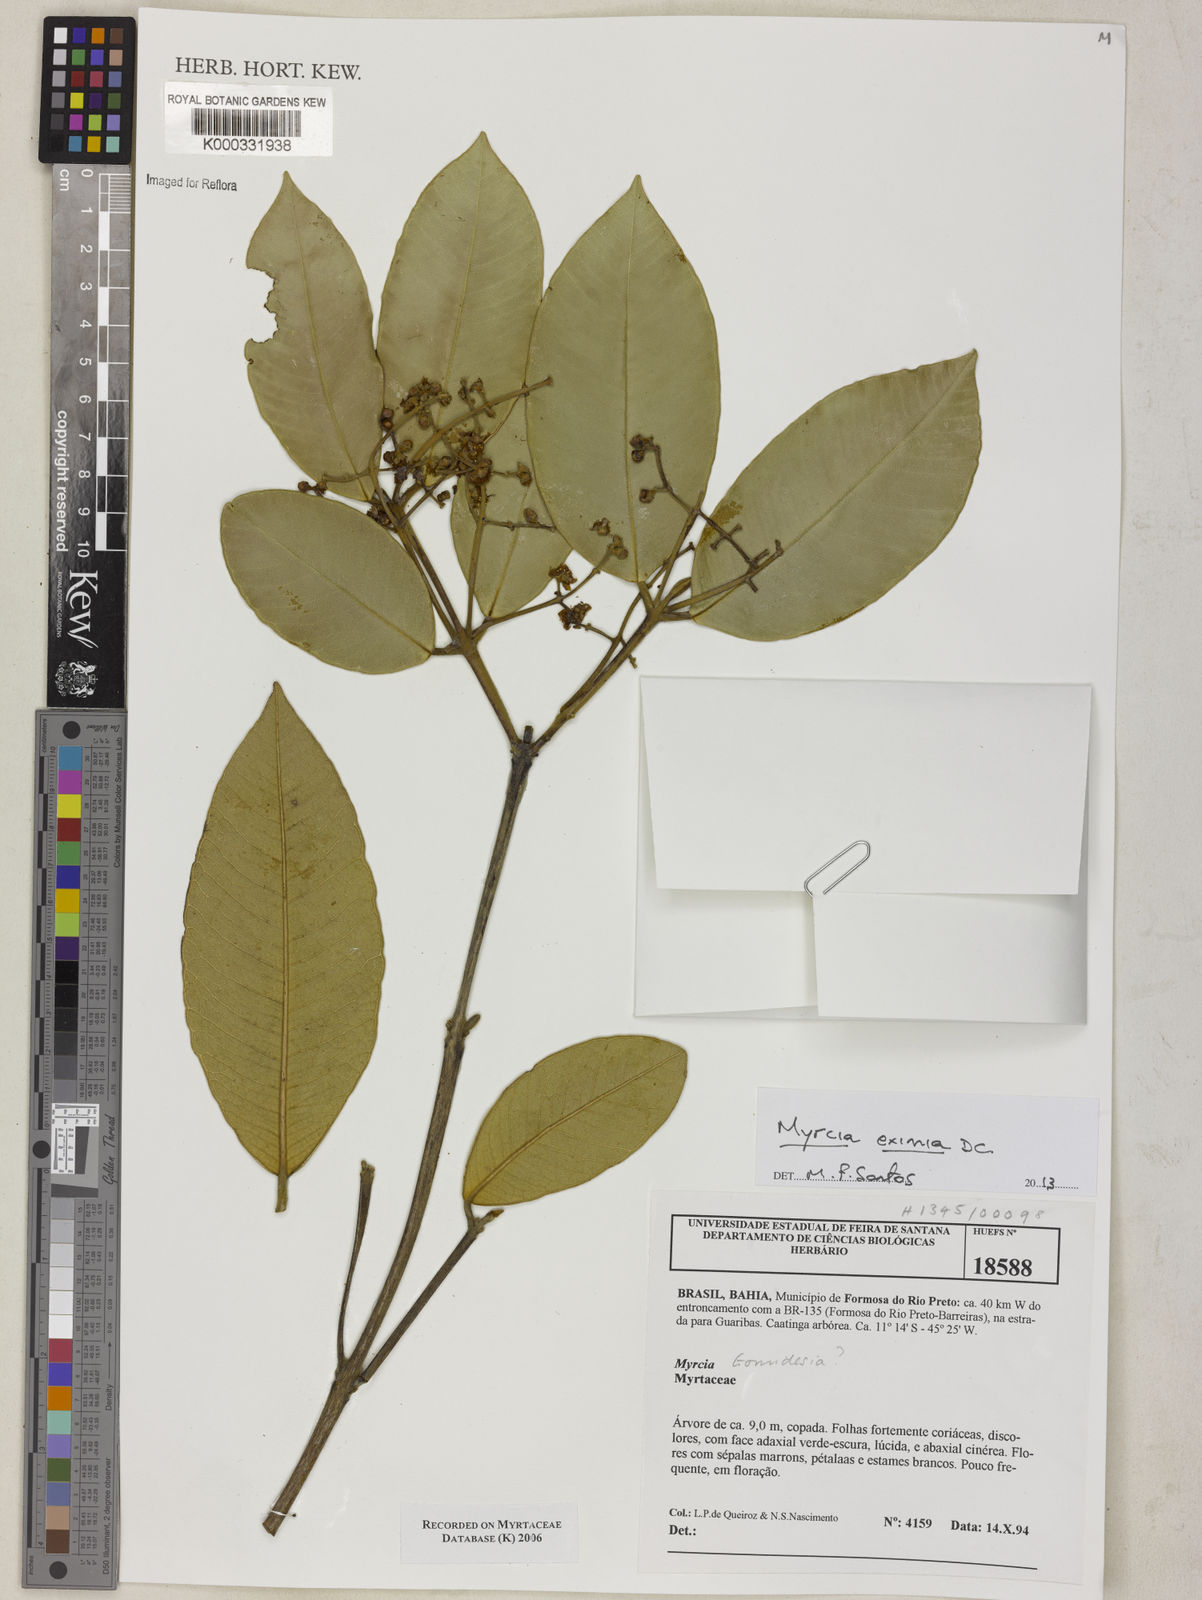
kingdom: Plantae
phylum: Tracheophyta
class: Magnoliopsida
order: Myrtales
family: Myrtaceae
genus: Myrcia
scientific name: Myrcia
